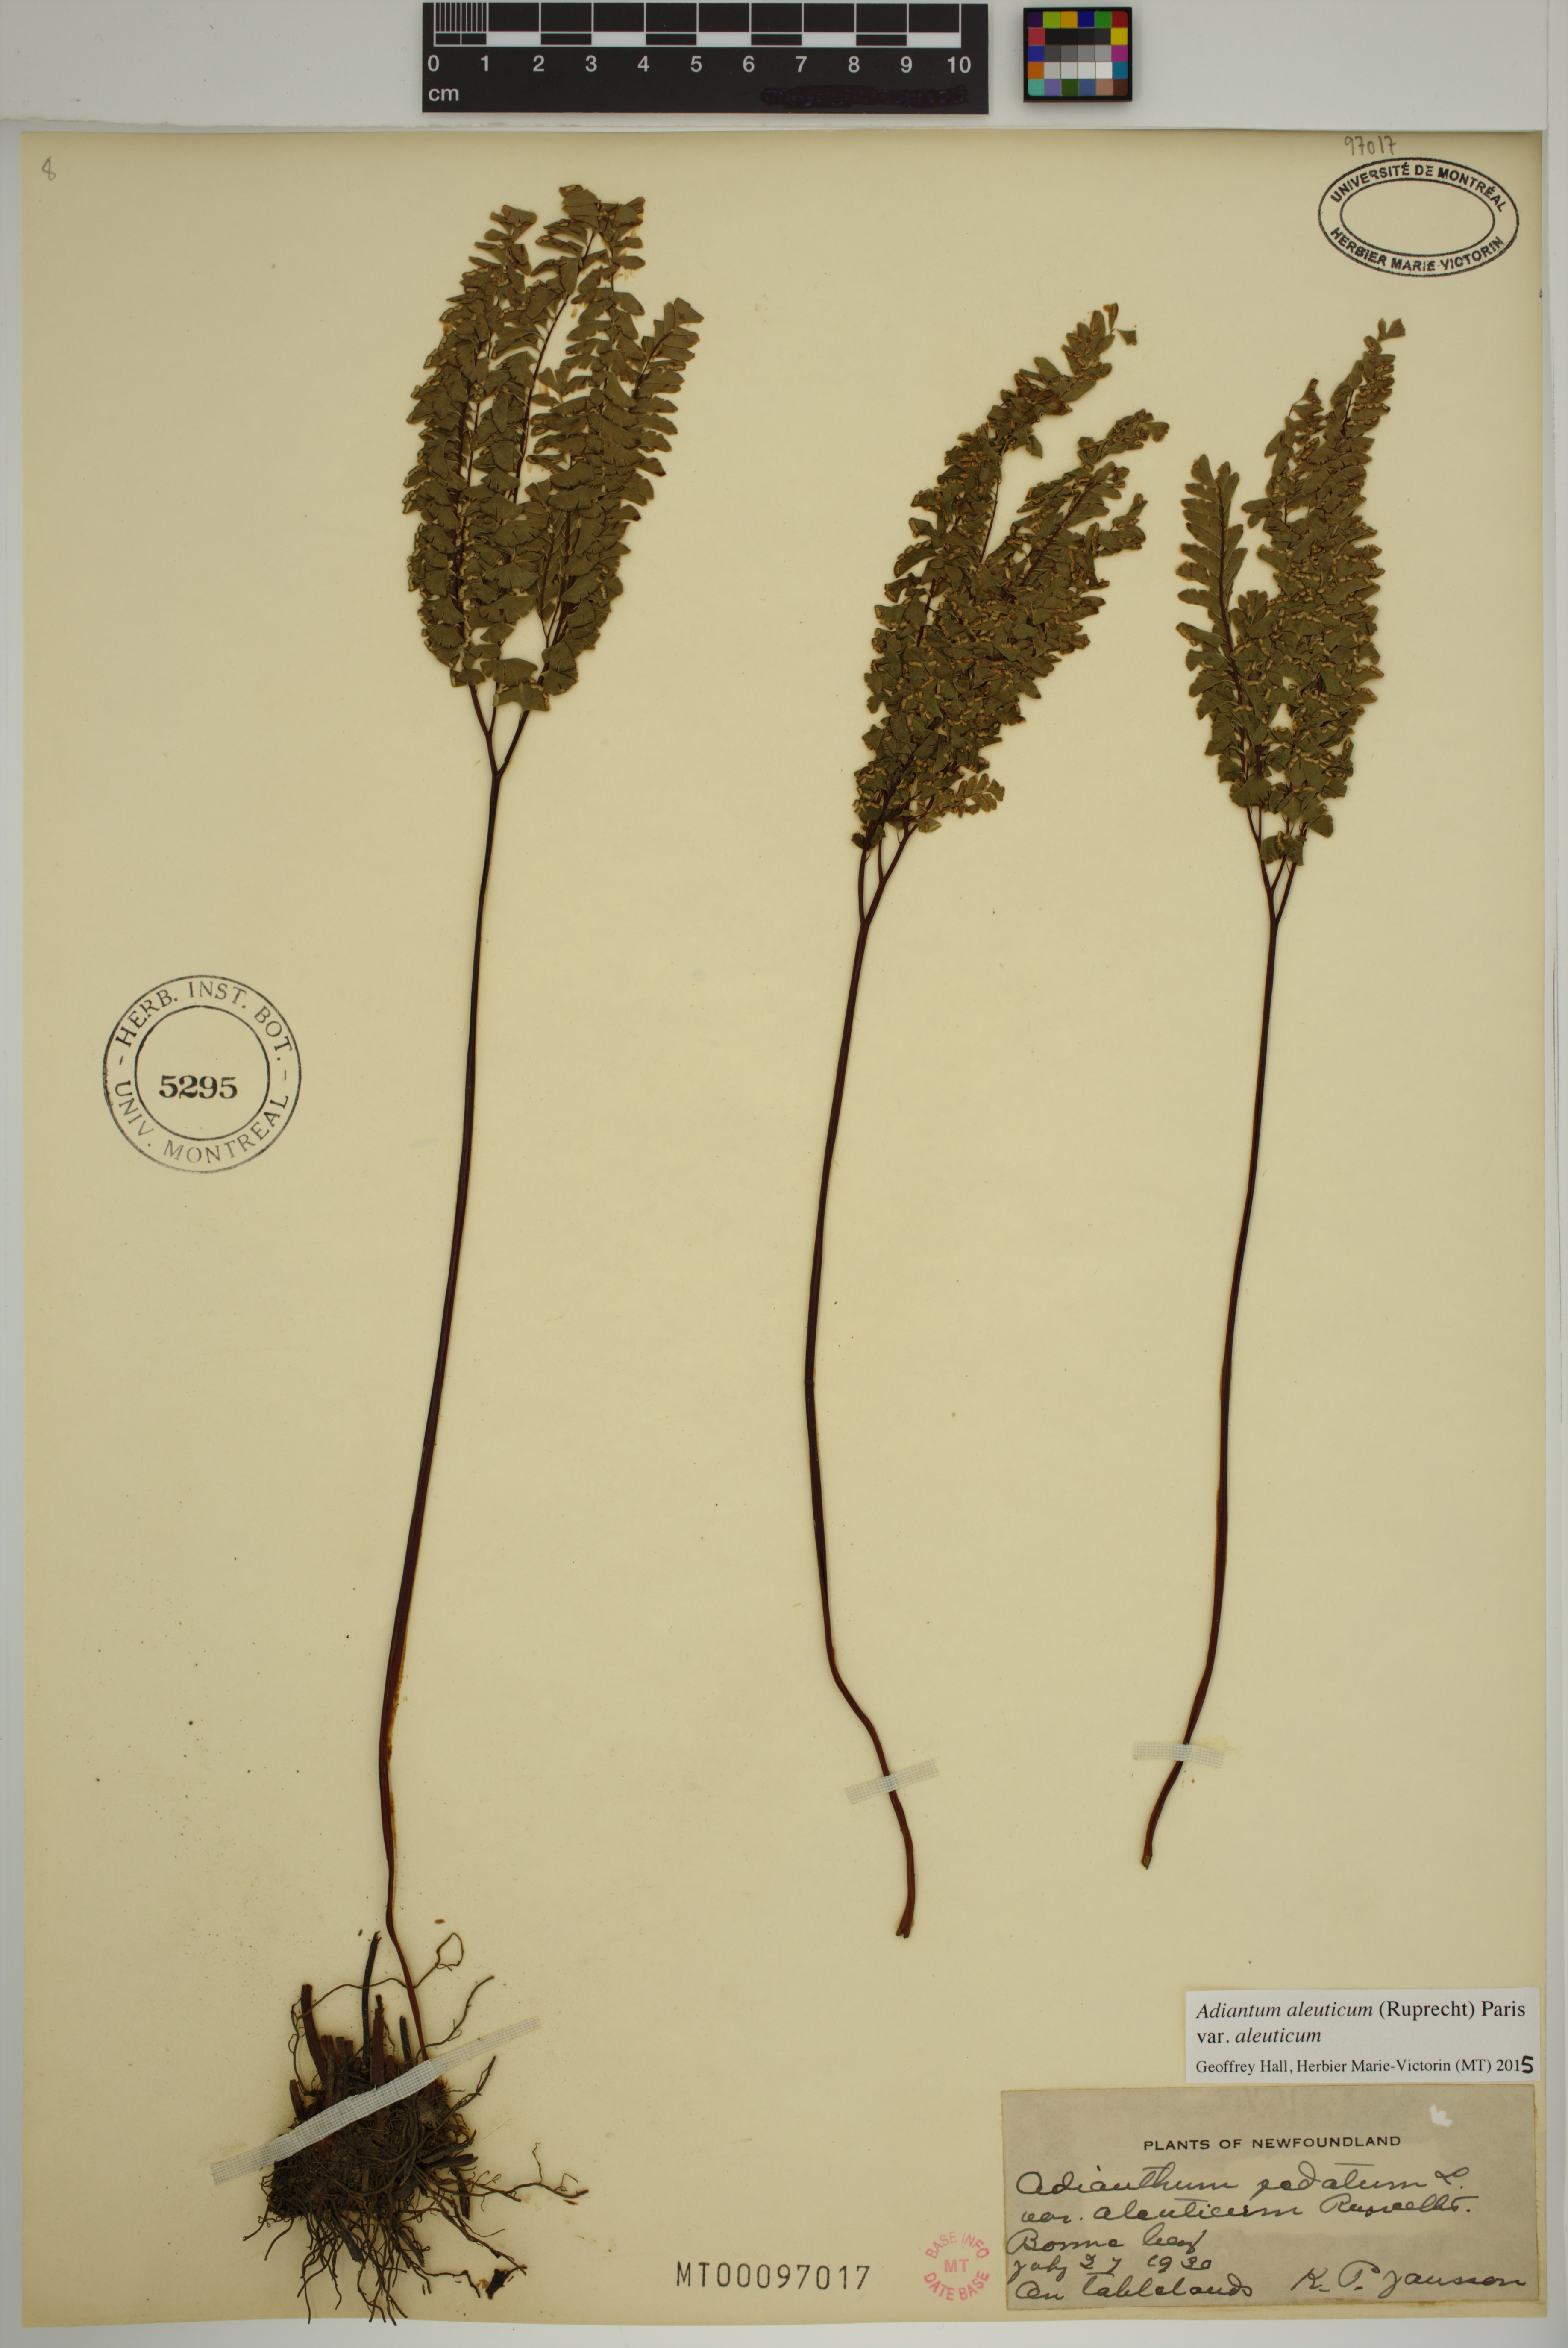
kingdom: Plantae
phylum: Tracheophyta
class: Polypodiopsida
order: Polypodiales
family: Pteridaceae
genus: Adiantum
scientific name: Adiantum aleuticum
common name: Aleutian maidenhair fern
